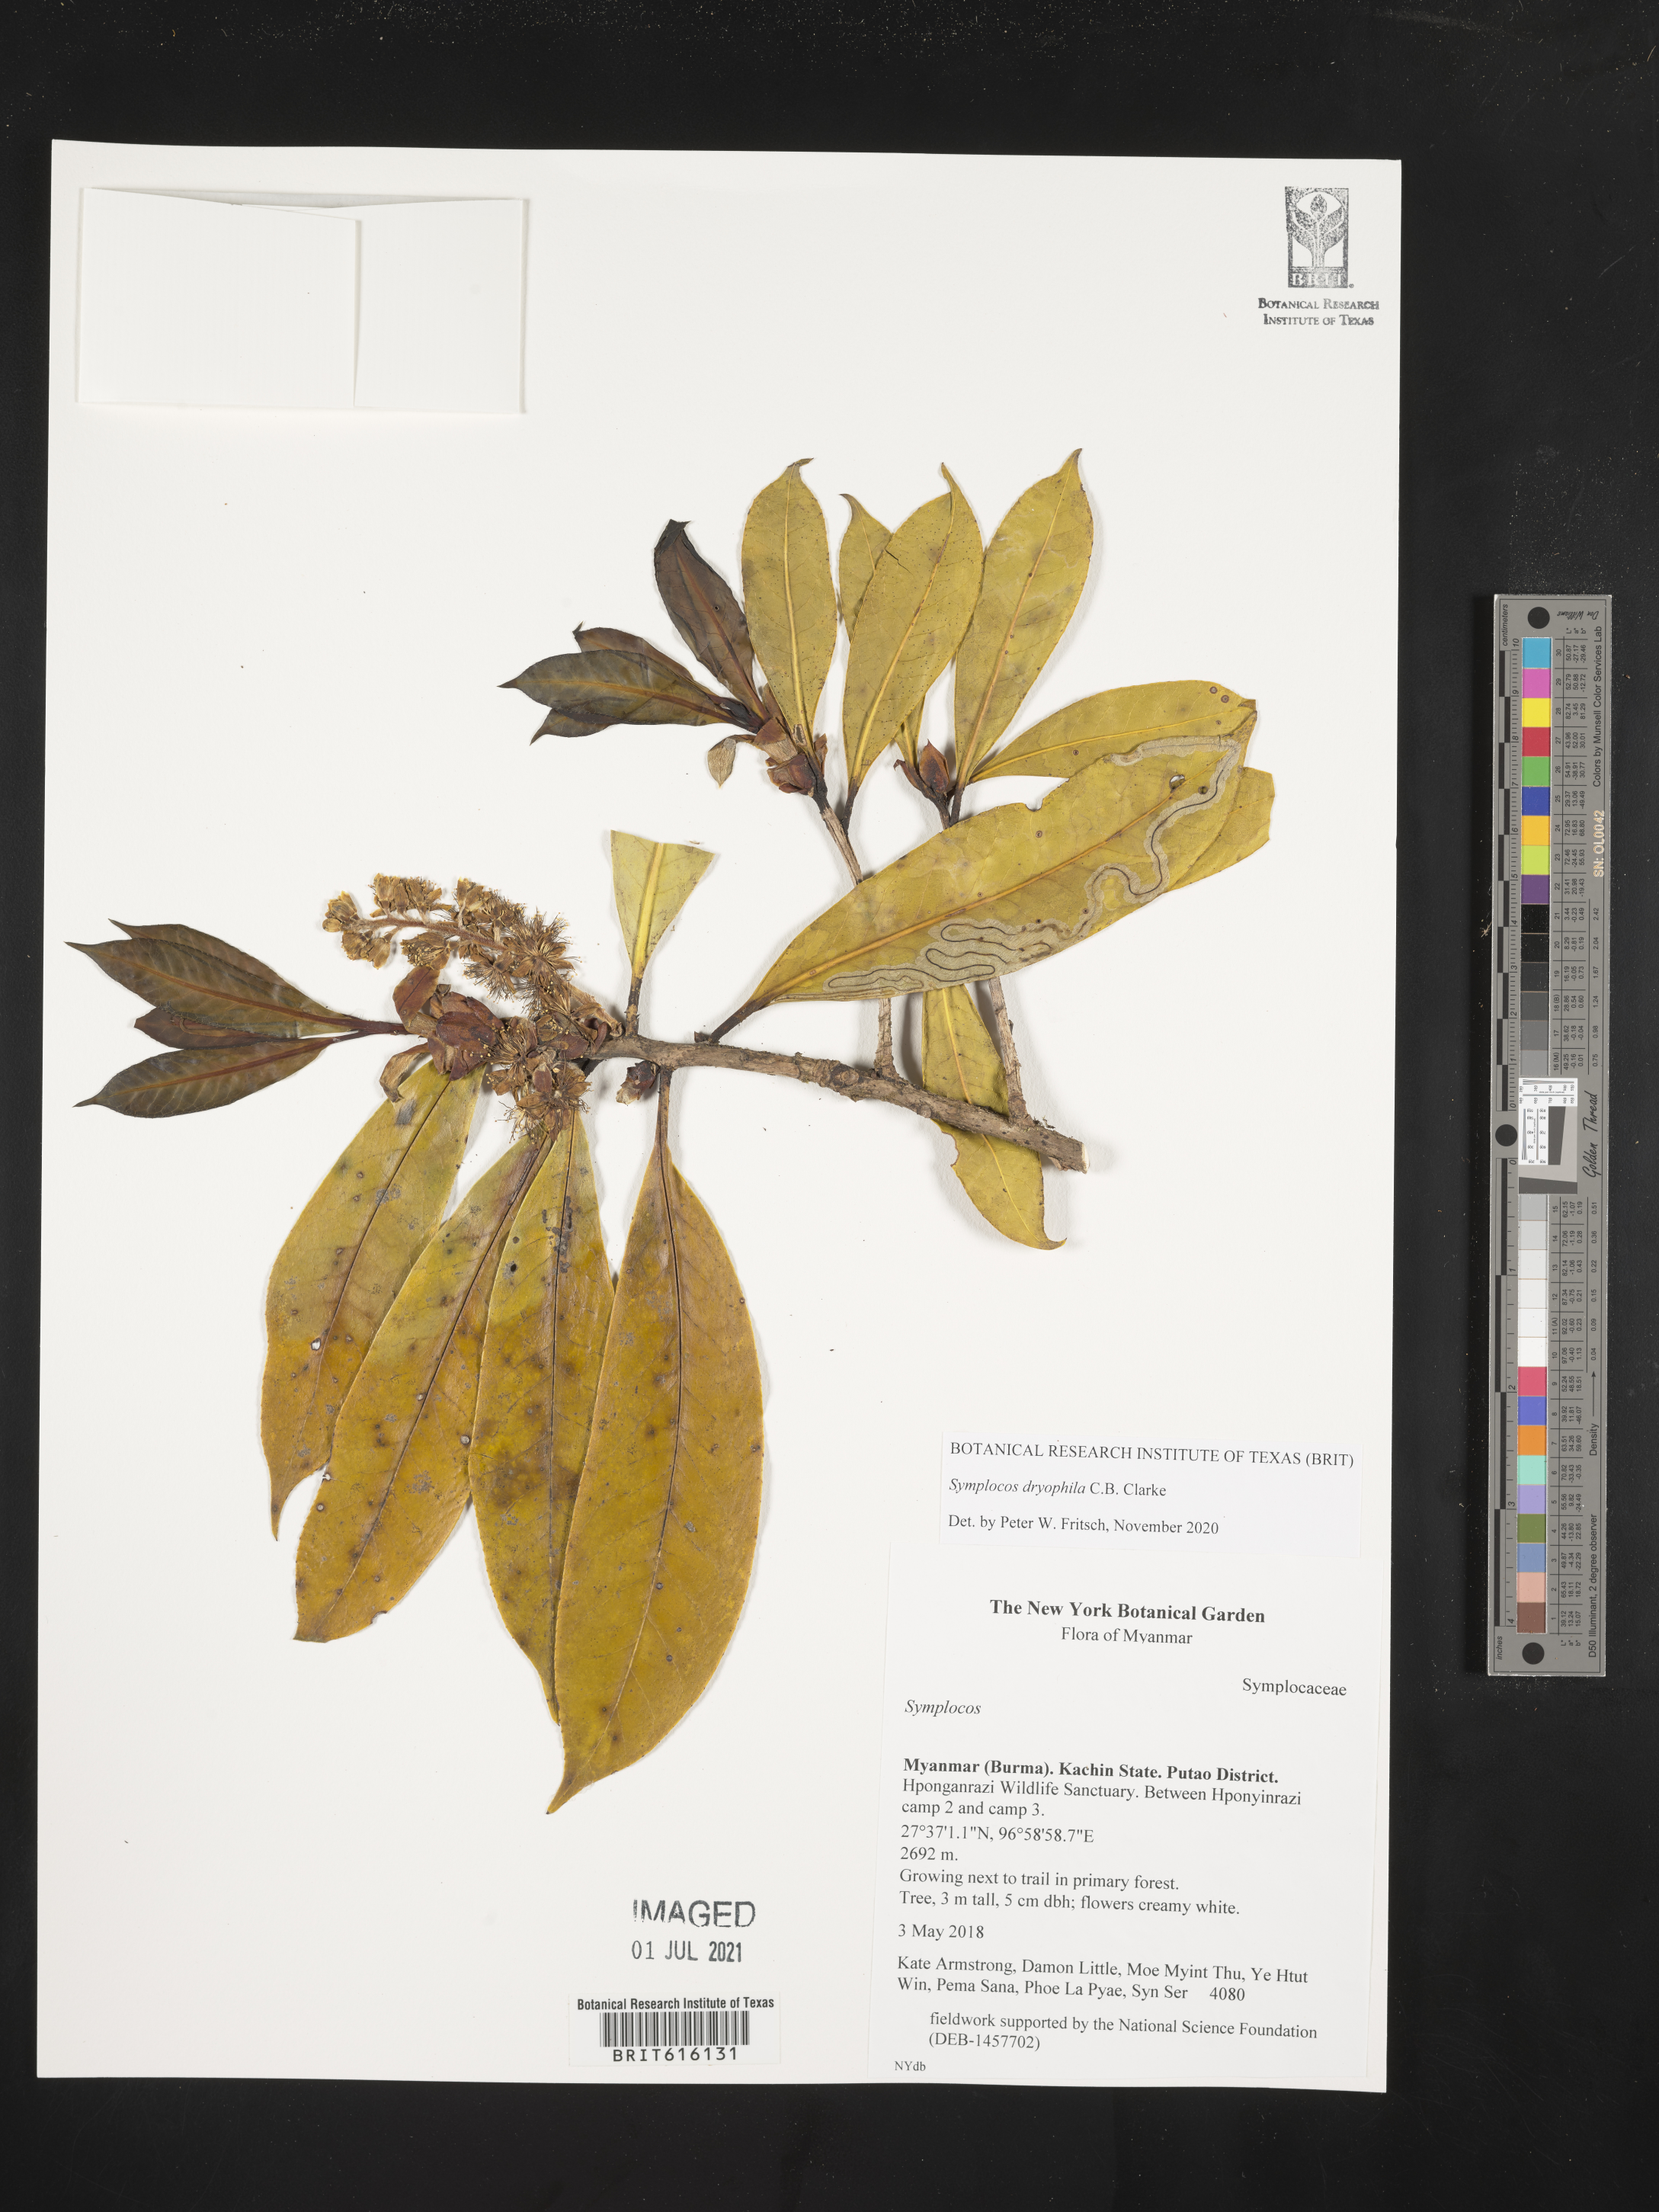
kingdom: Plantae
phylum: Tracheophyta
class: Magnoliopsida
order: Ericales
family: Symplocaceae
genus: Symplocos
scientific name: Symplocos dryophila
